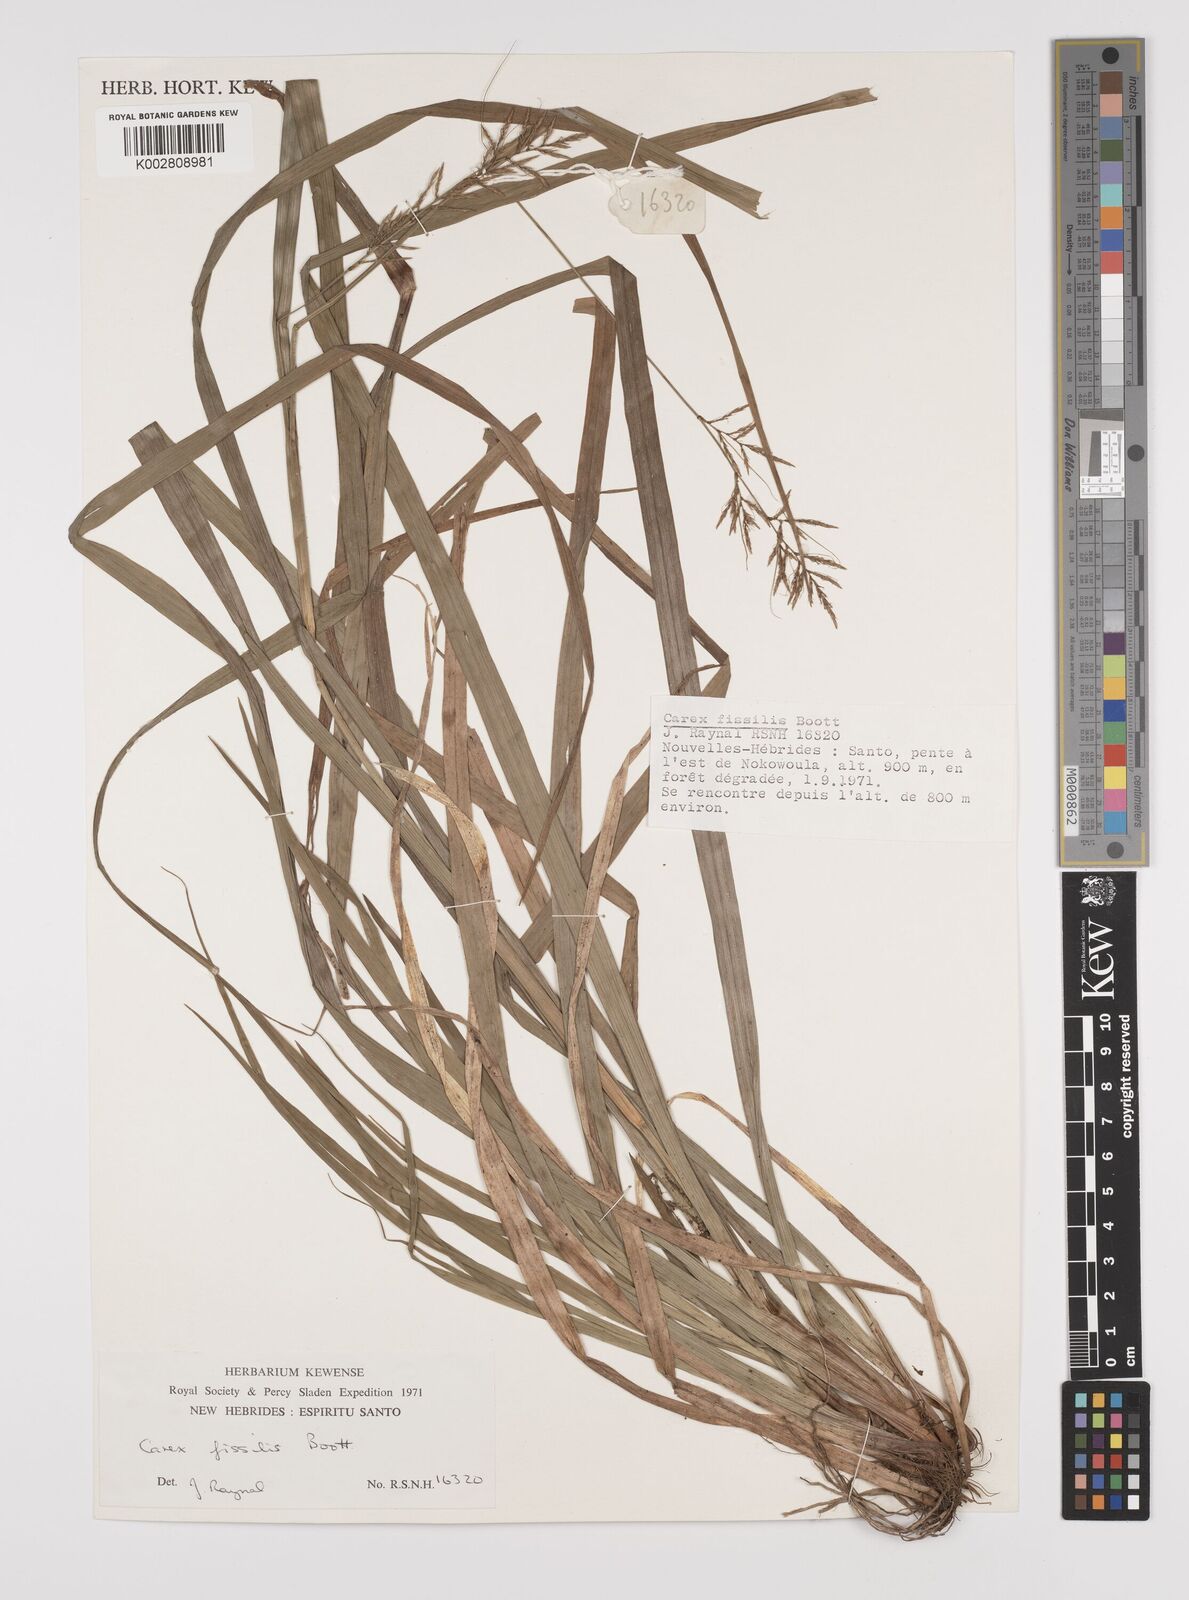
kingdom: Plantae
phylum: Tracheophyta
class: Liliopsida
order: Poales
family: Cyperaceae
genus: Carex
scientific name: Carex indica
